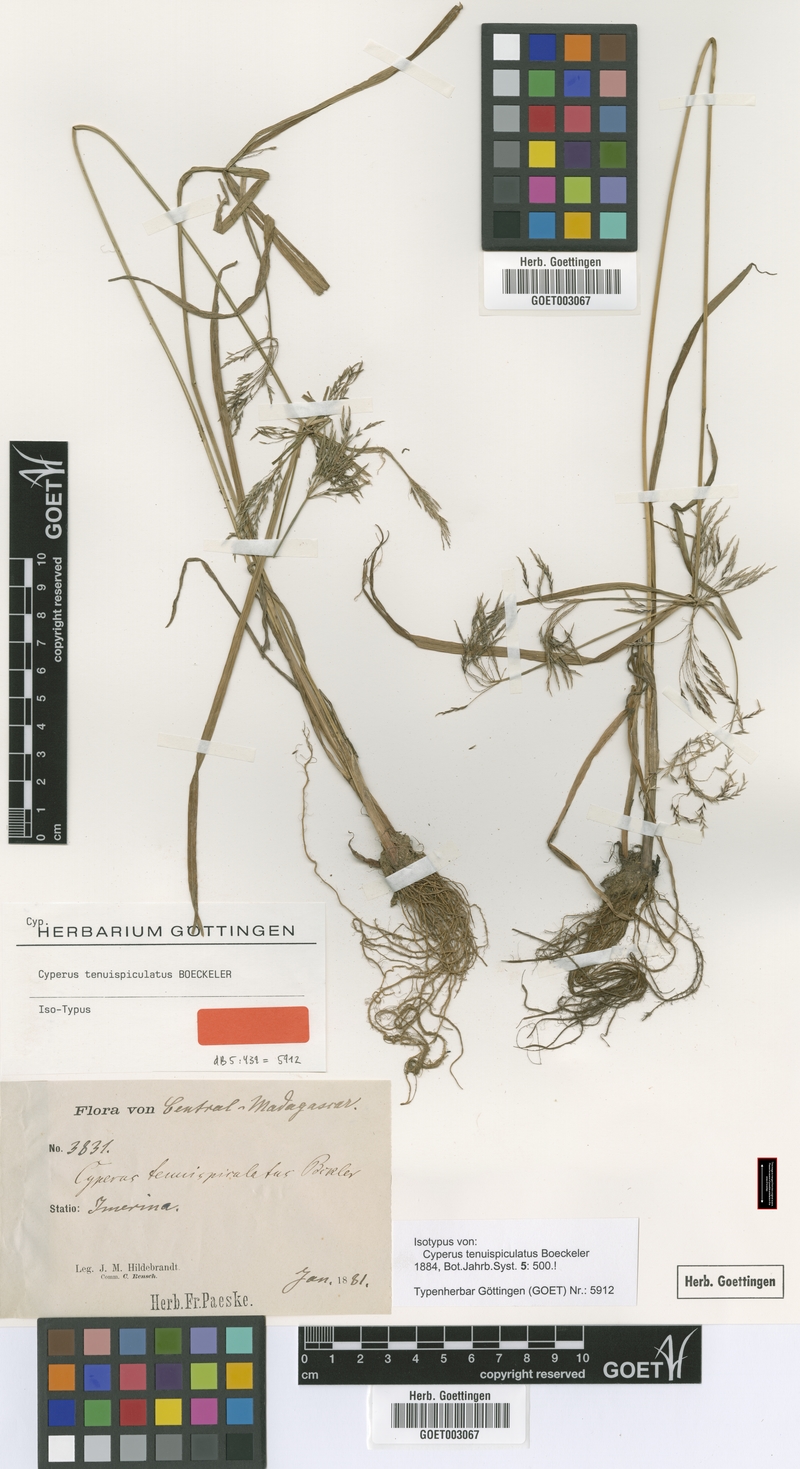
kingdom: Plantae
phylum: Tracheophyta
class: Liliopsida
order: Poales
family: Cyperaceae
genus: Cyperus
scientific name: Cyperus tenuispiculatus
